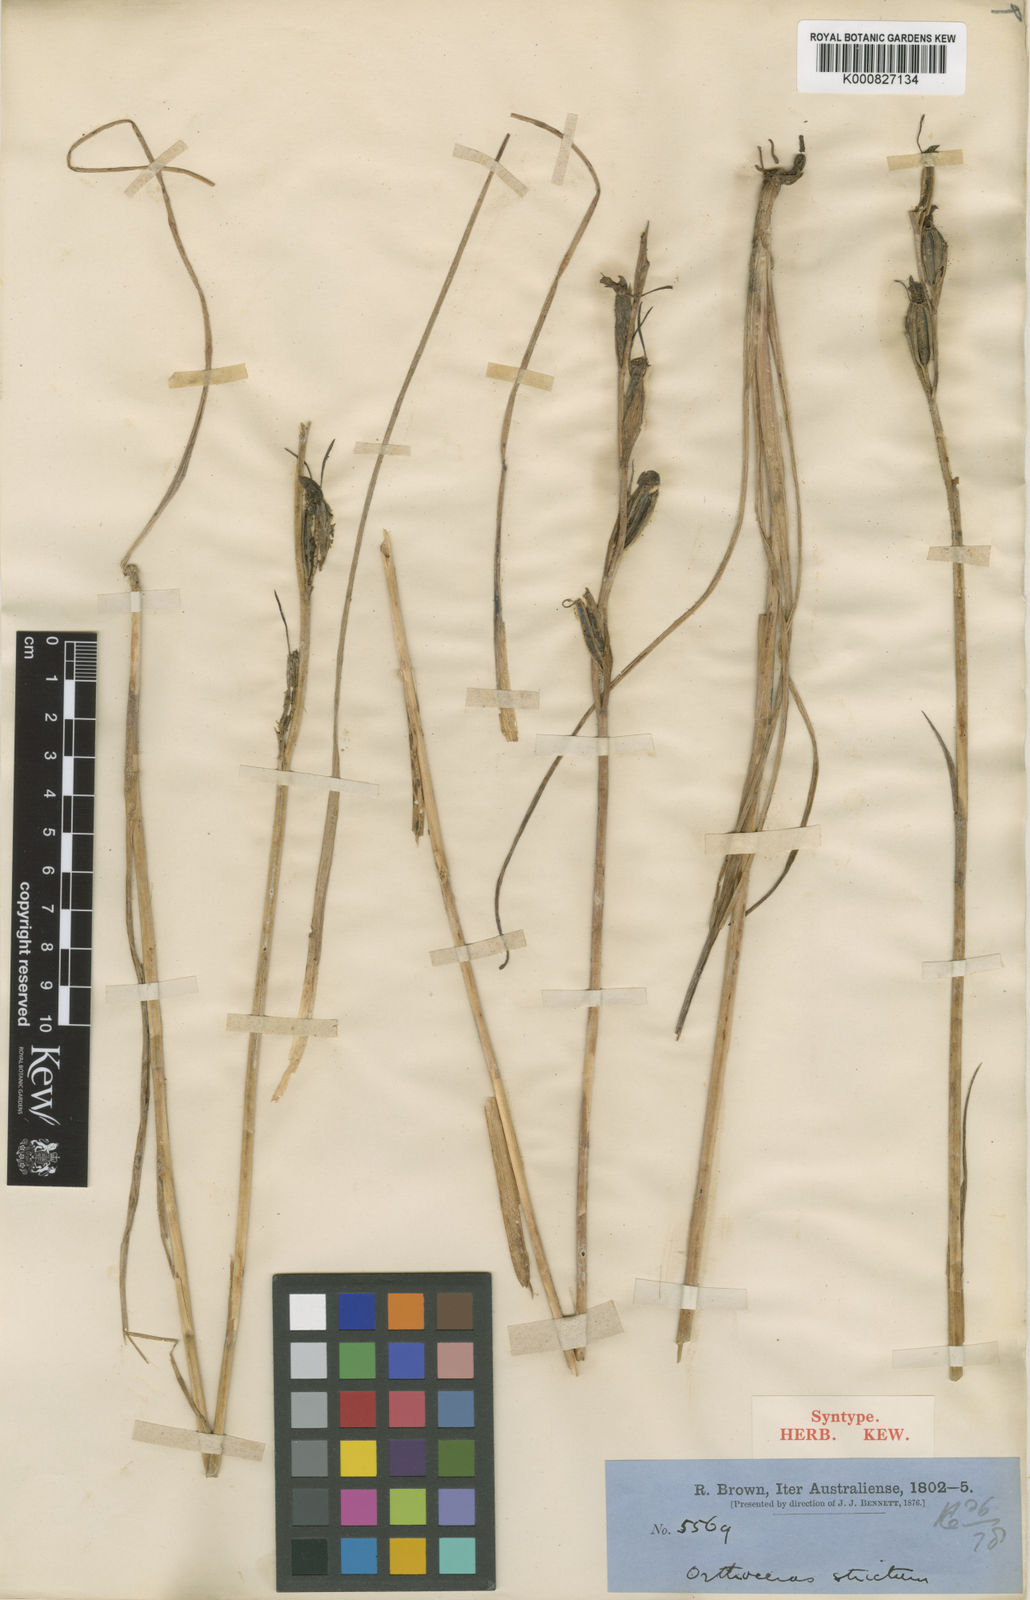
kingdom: Plantae
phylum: Tracheophyta
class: Liliopsida
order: Asparagales
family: Orchidaceae
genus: Orthoceras
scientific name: Orthoceras strictum
